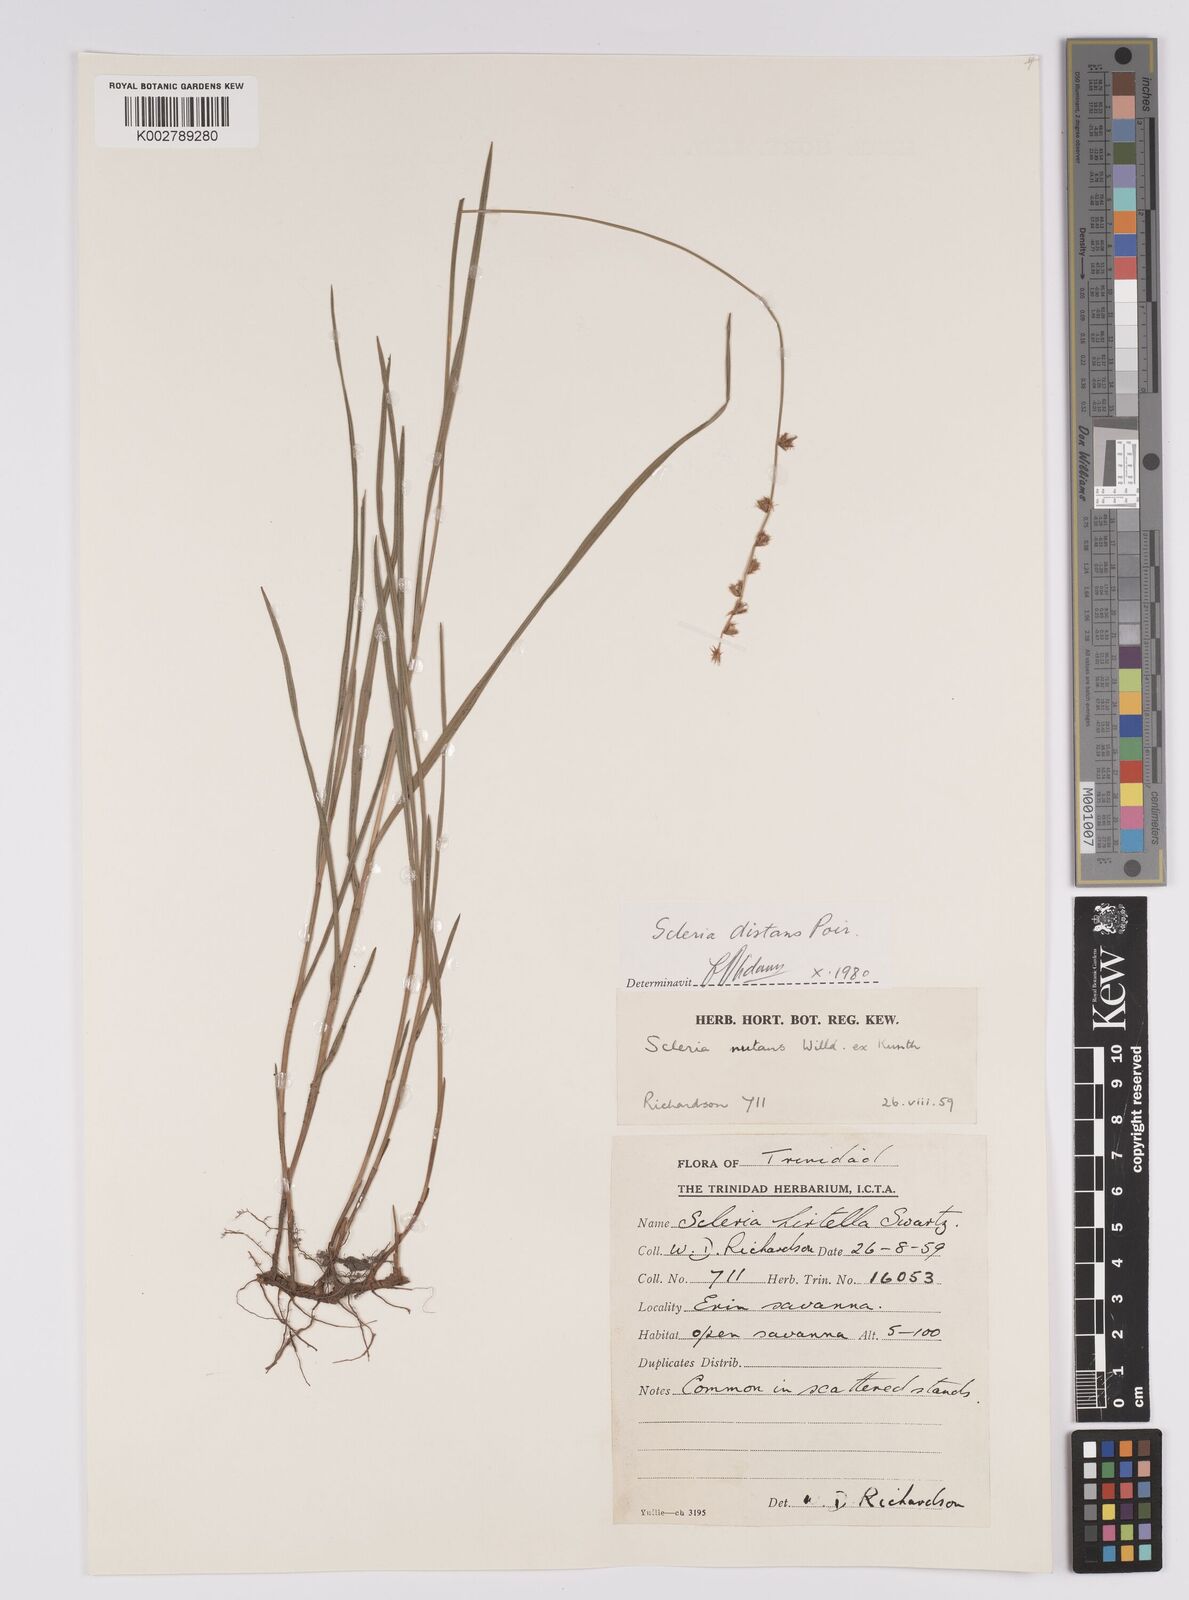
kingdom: Plantae
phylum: Tracheophyta
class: Liliopsida
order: Poales
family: Cyperaceae
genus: Scleria
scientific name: Scleria distans
